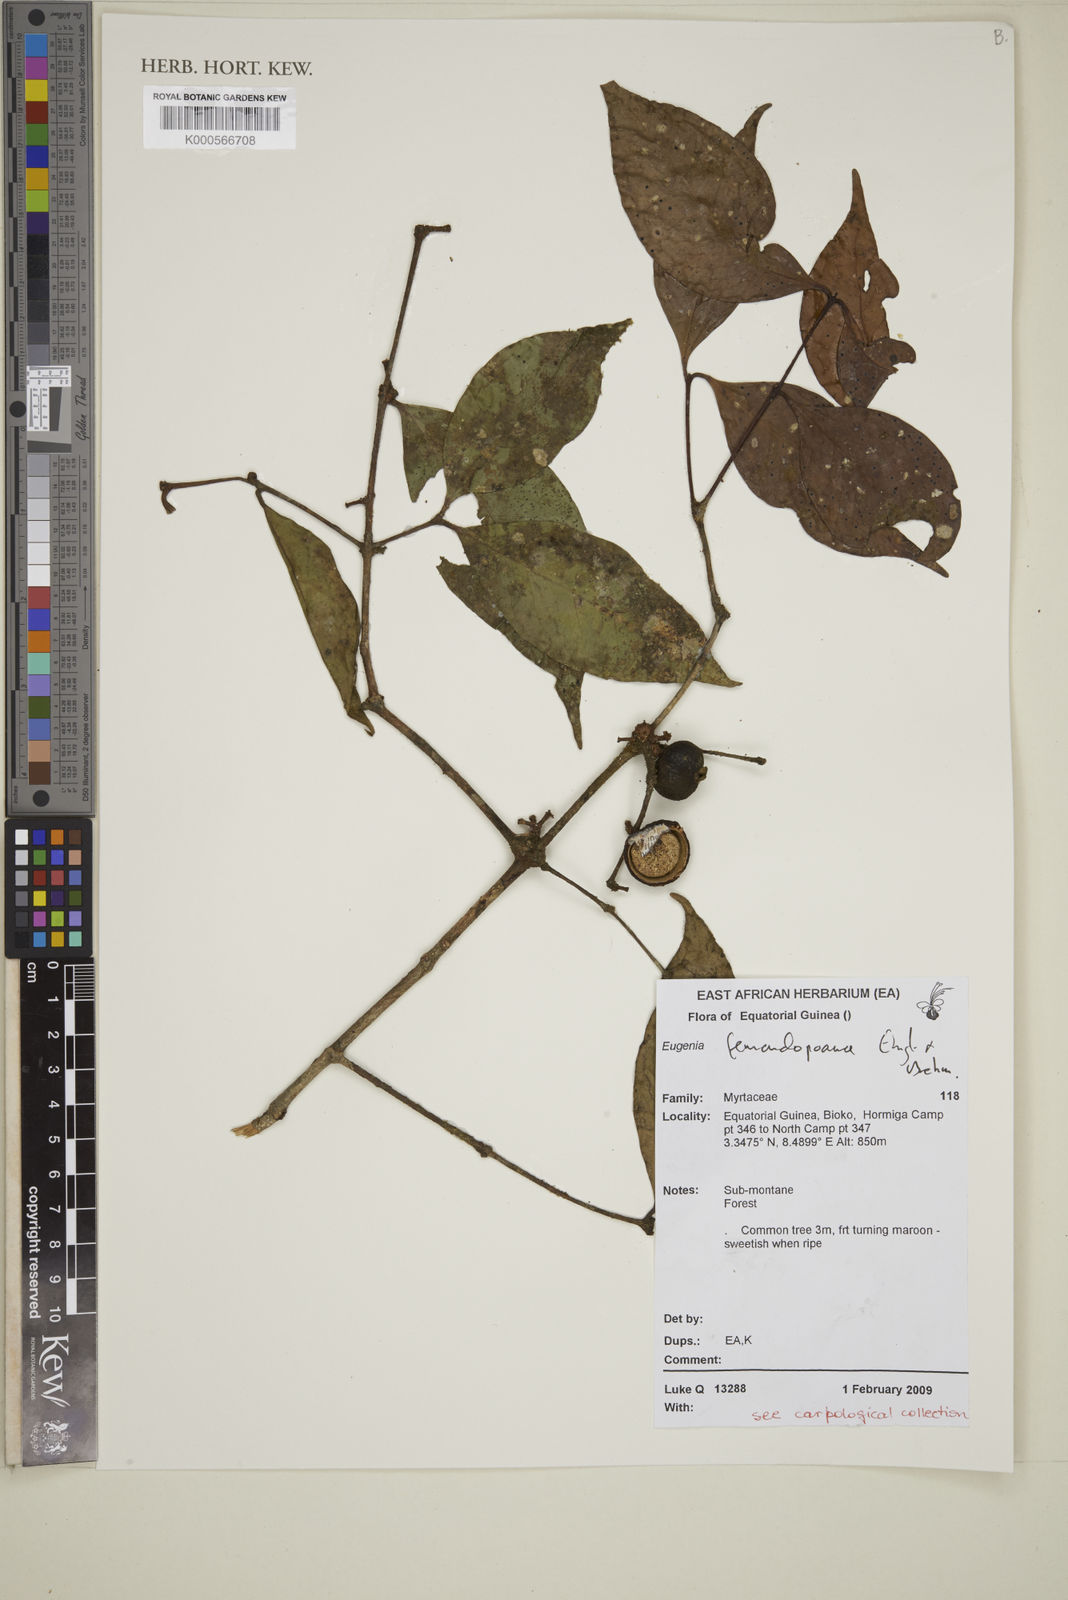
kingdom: Plantae
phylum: Tracheophyta
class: Magnoliopsida
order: Myrtales
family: Myrtaceae
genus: Eugenia
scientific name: Eugenia fernandopoana
